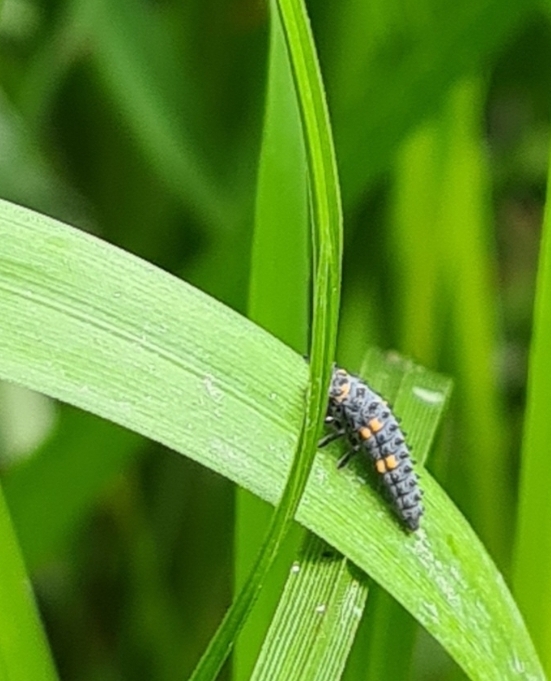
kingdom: Animalia
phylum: Arthropoda
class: Insecta
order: Coleoptera
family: Coccinellidae
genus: Coccinella
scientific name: Coccinella septempunctata
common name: Syvplettet mariehøne
